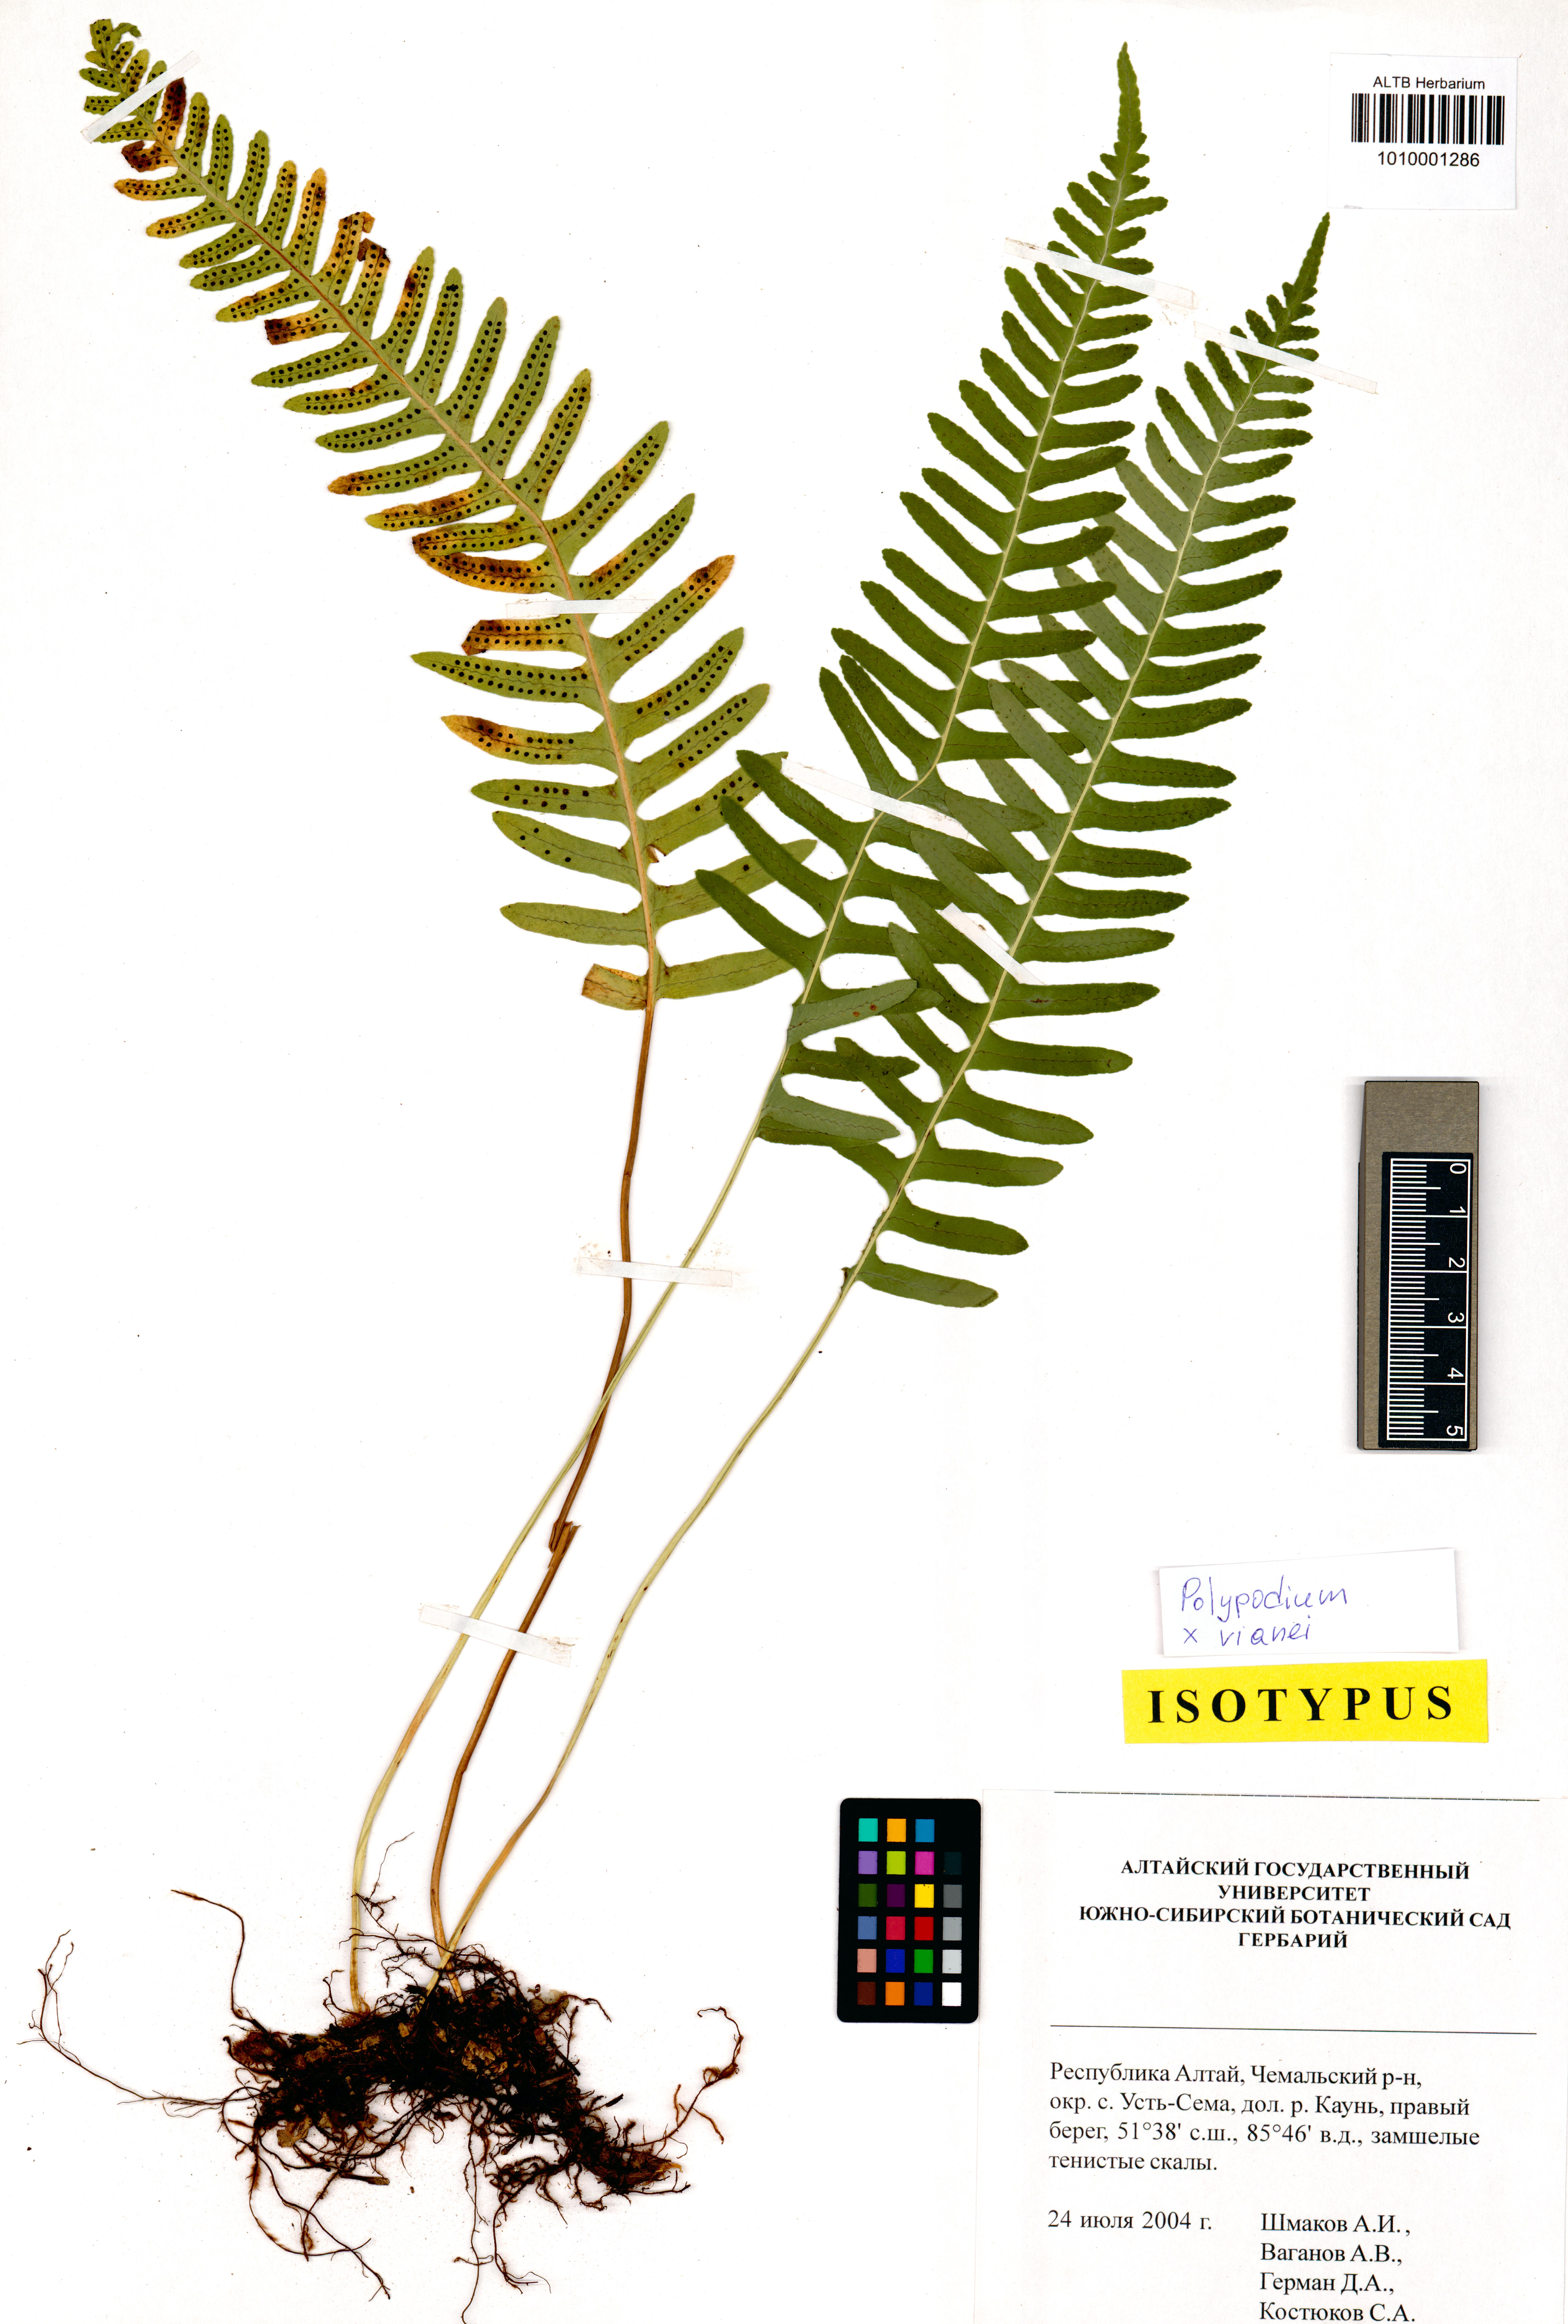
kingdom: Plantae
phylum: Tracheophyta
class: Polypodiopsida
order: Polypodiales
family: Polypodiaceae
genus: Polypodium
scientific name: Polypodium vianei
